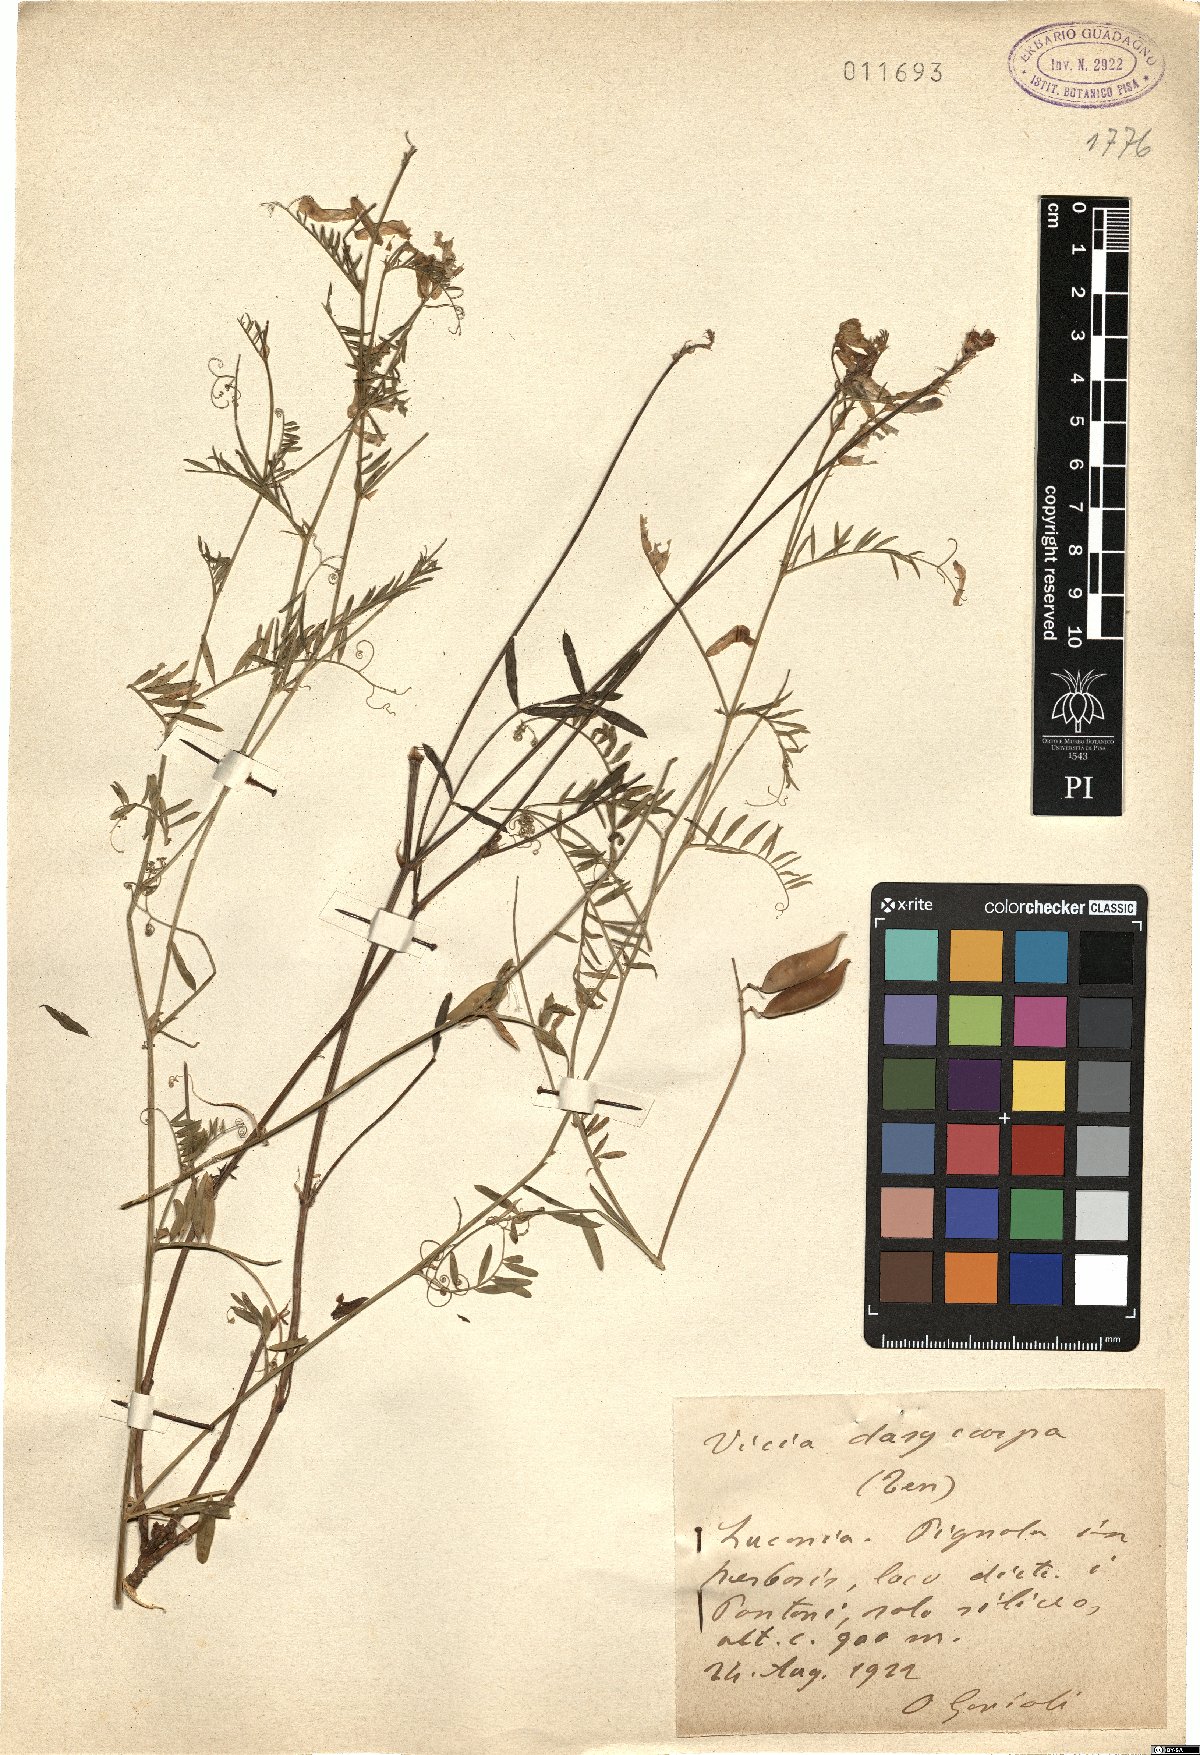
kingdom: Plantae
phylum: Tracheophyta
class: Magnoliopsida
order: Fabales
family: Fabaceae
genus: Vicia
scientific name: Vicia villosa
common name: Fodder vetch
